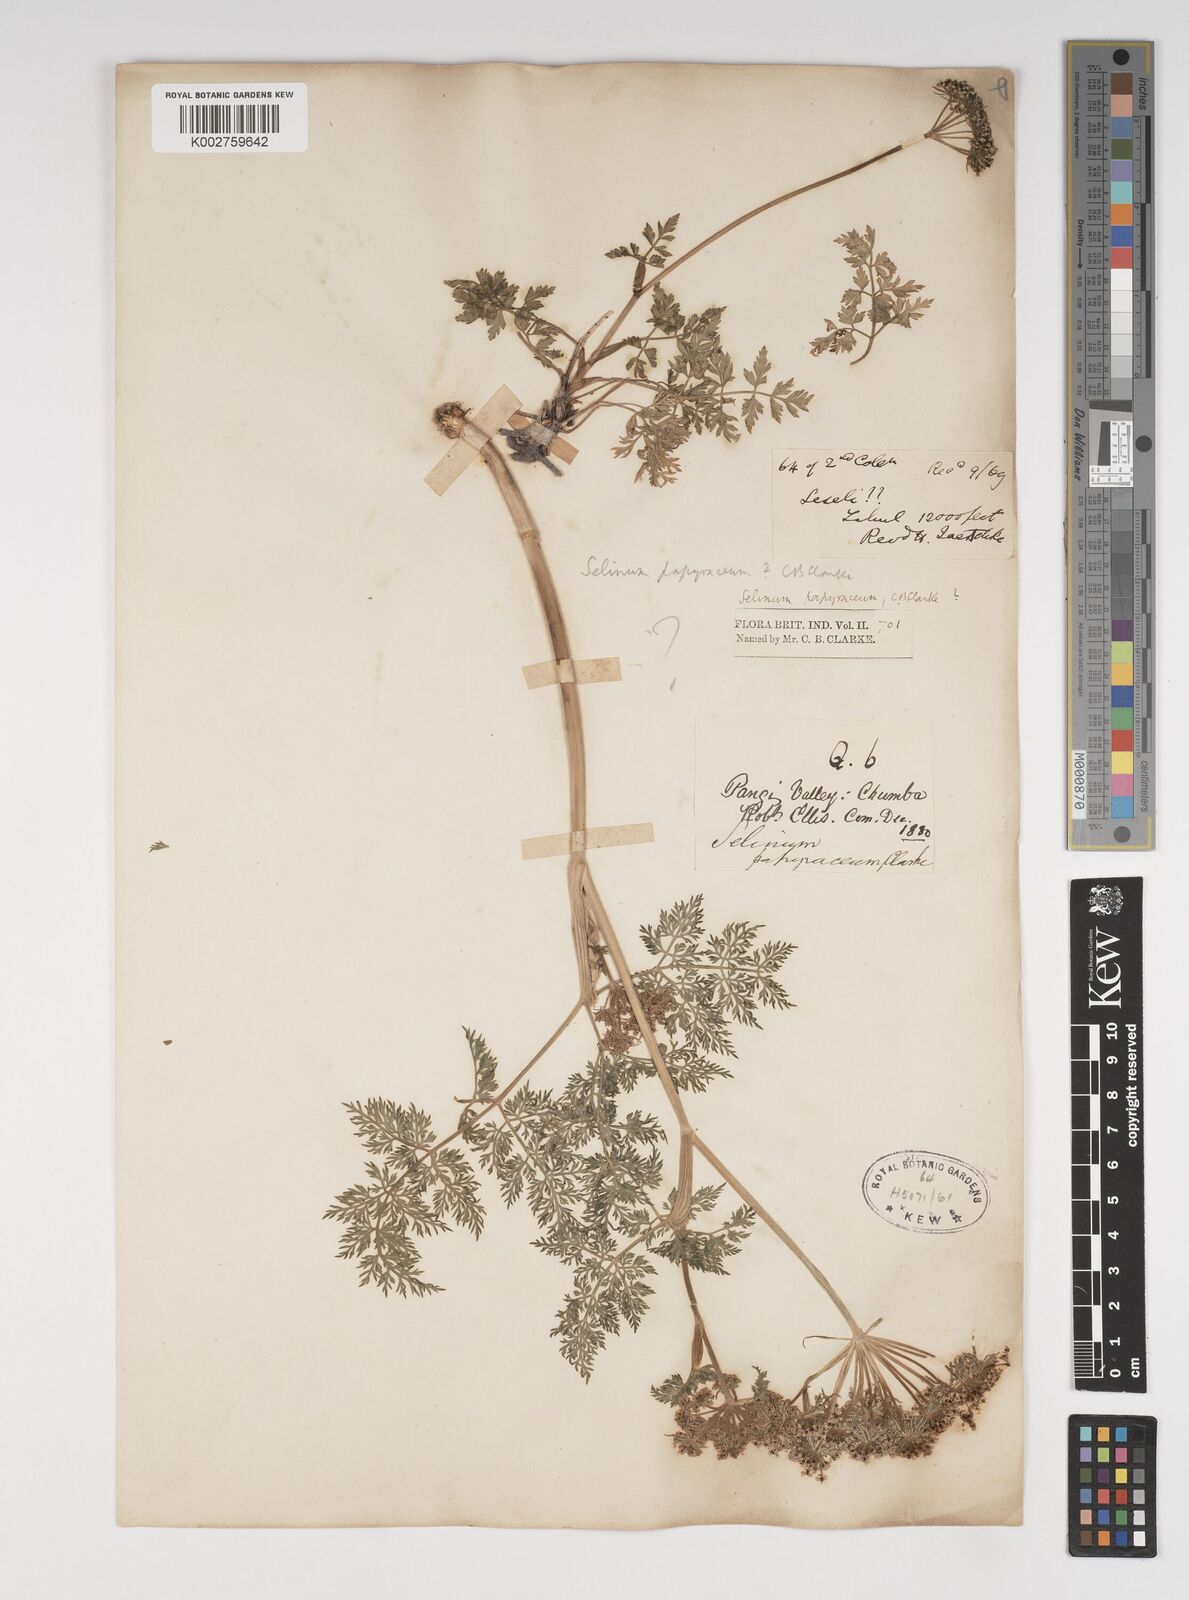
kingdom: Plantae
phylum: Tracheophyta
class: Magnoliopsida
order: Apiales
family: Apiaceae
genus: Conioselinum
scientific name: Conioselinum tataricum
